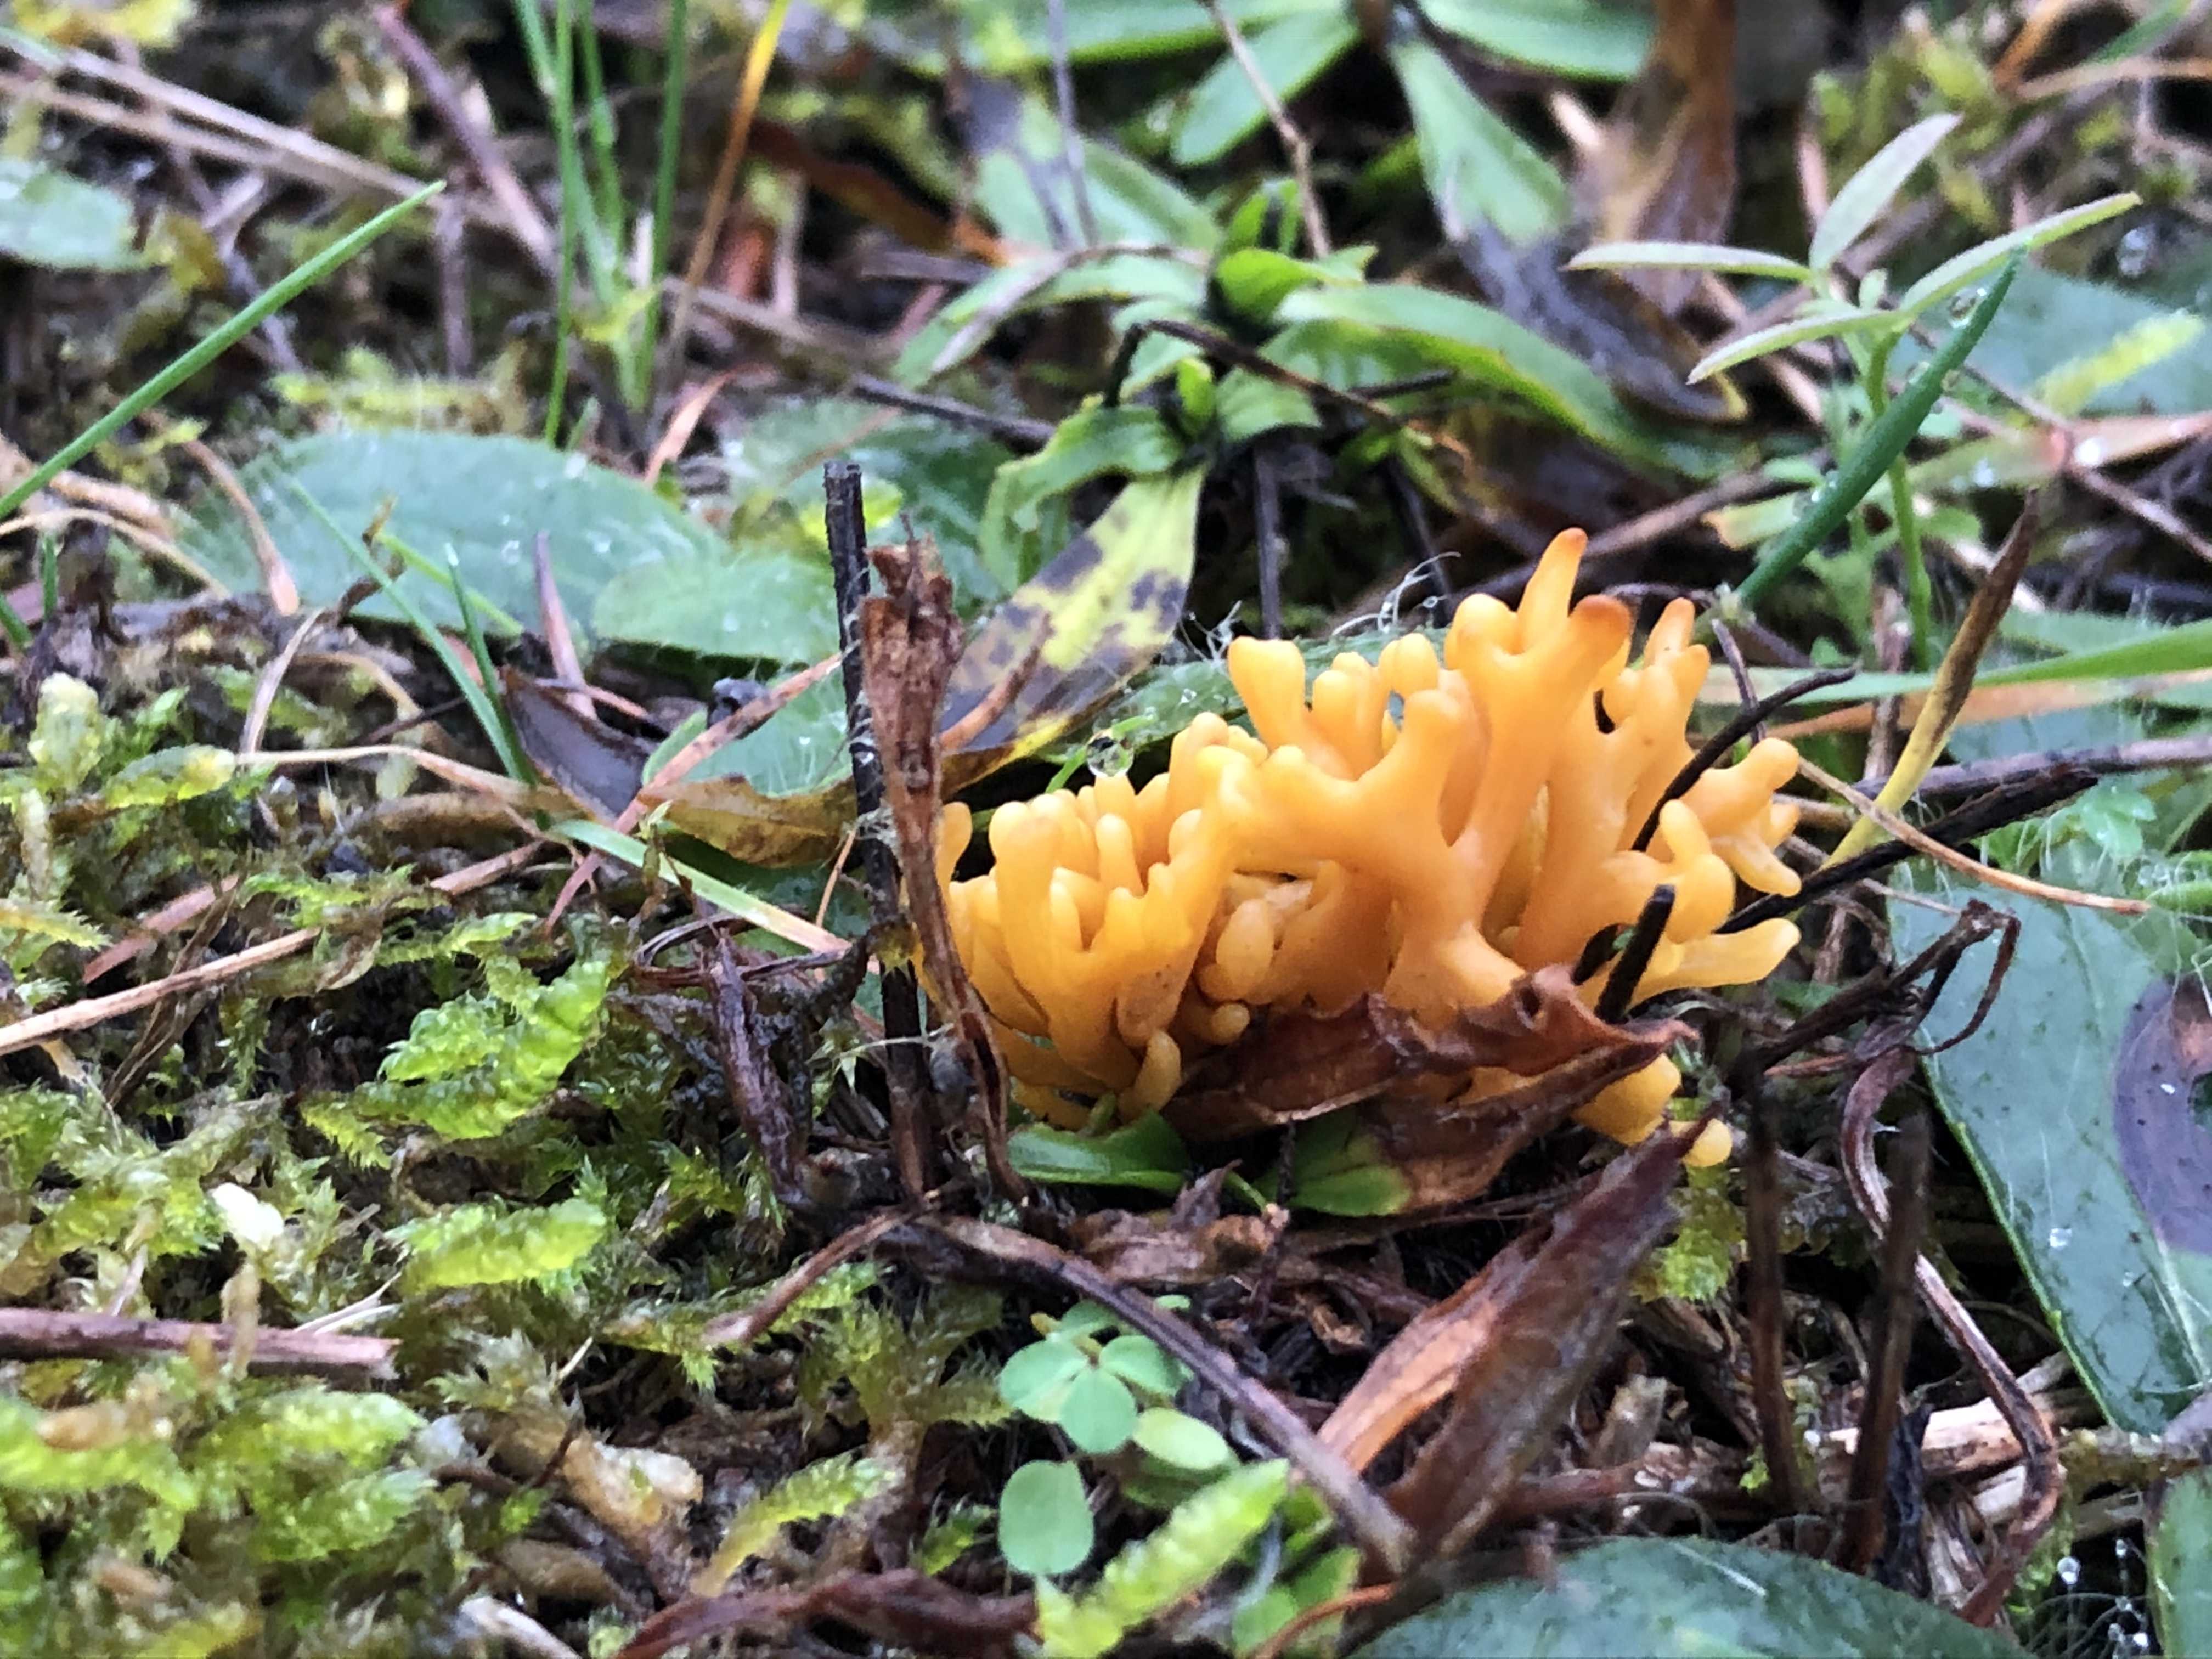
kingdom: Fungi
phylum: Basidiomycota
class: Agaricomycetes
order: Agaricales
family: Clavariaceae
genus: Clavulinopsis
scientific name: Clavulinopsis corniculata
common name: eng-køllesvamp
